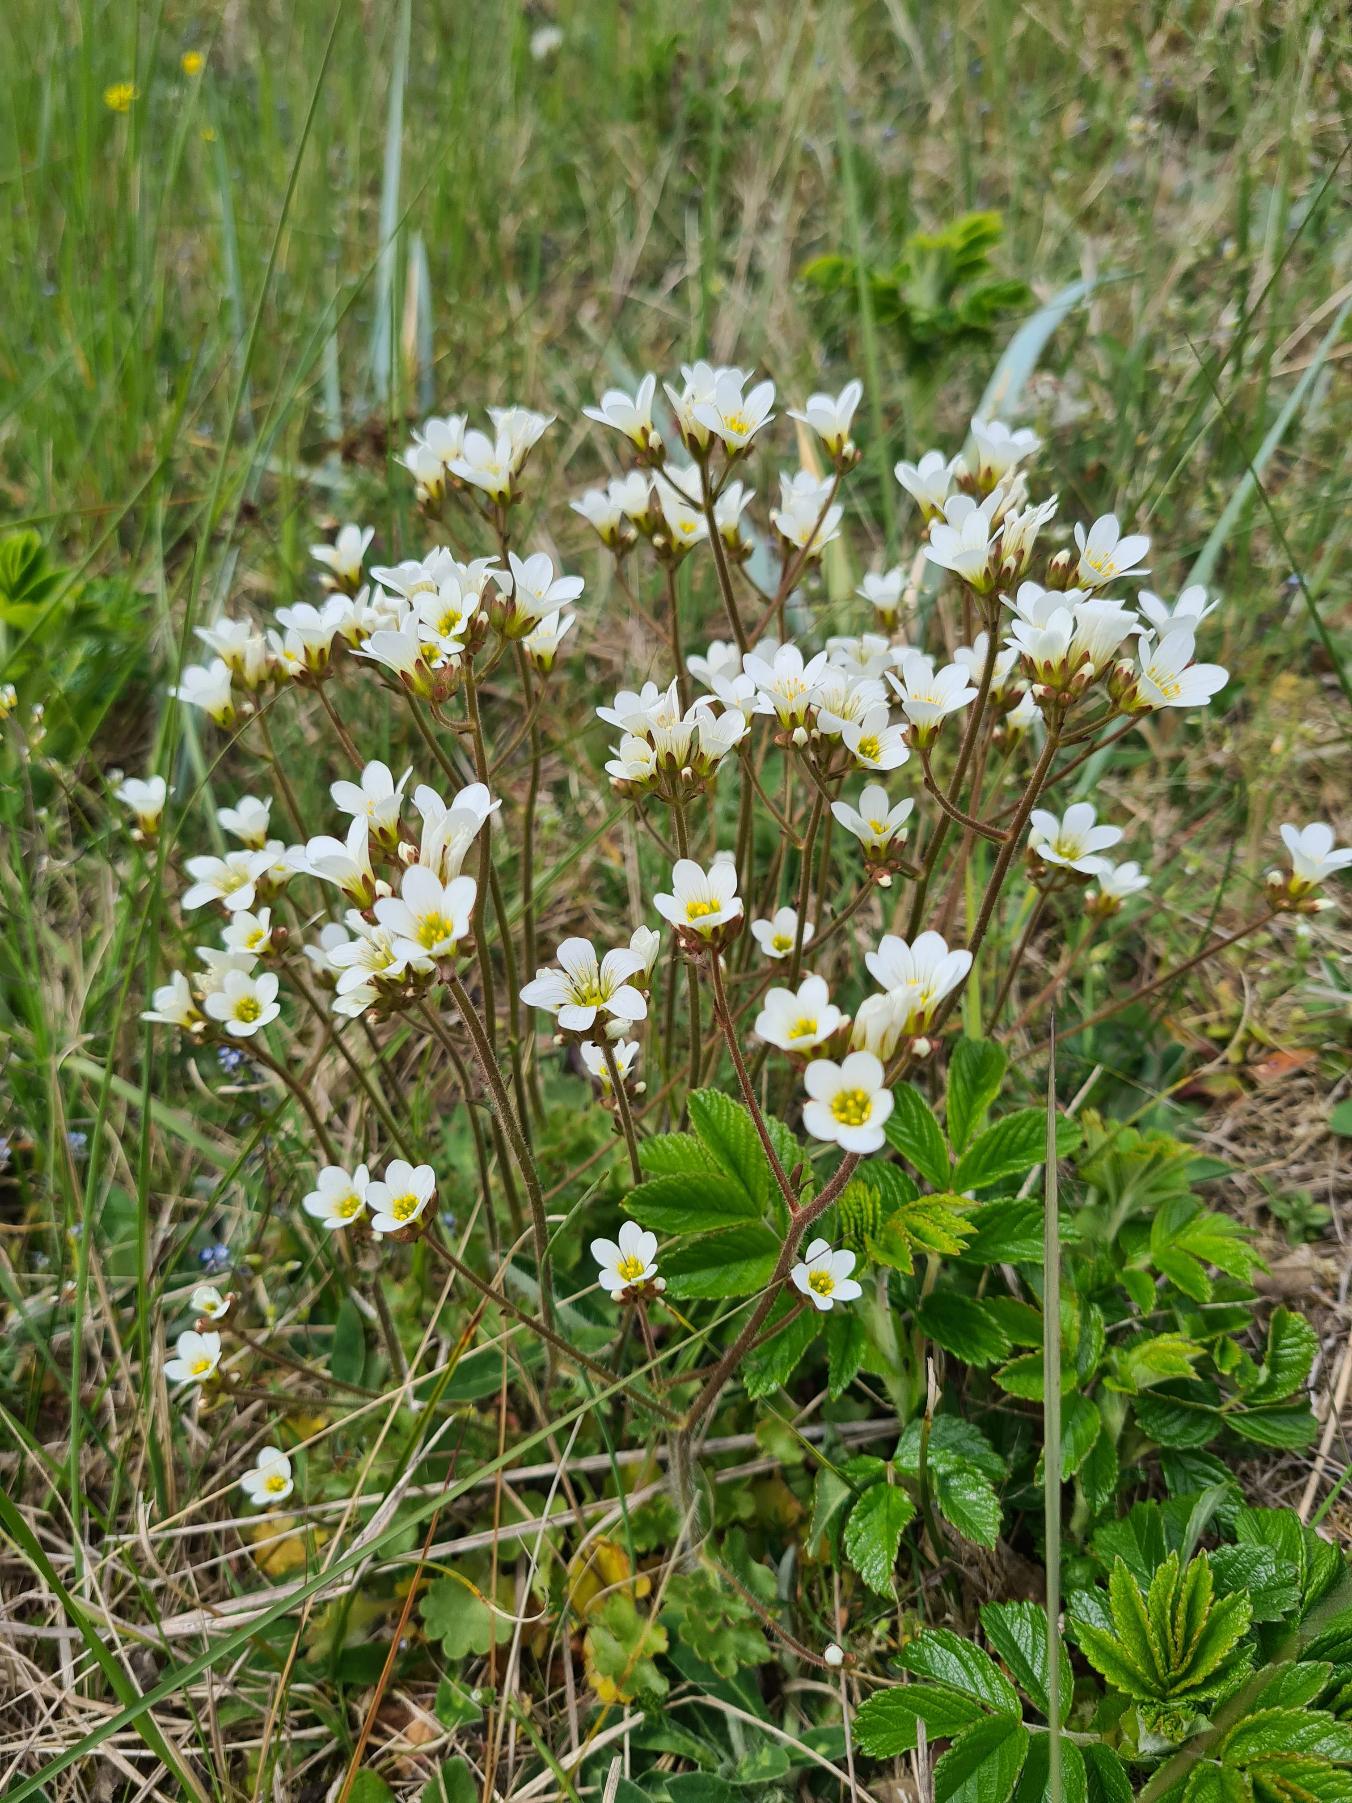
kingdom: Plantae
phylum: Tracheophyta
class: Magnoliopsida
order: Saxifragales
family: Saxifragaceae
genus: Saxifraga
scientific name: Saxifraga granulata
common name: Kornet stenbræk
